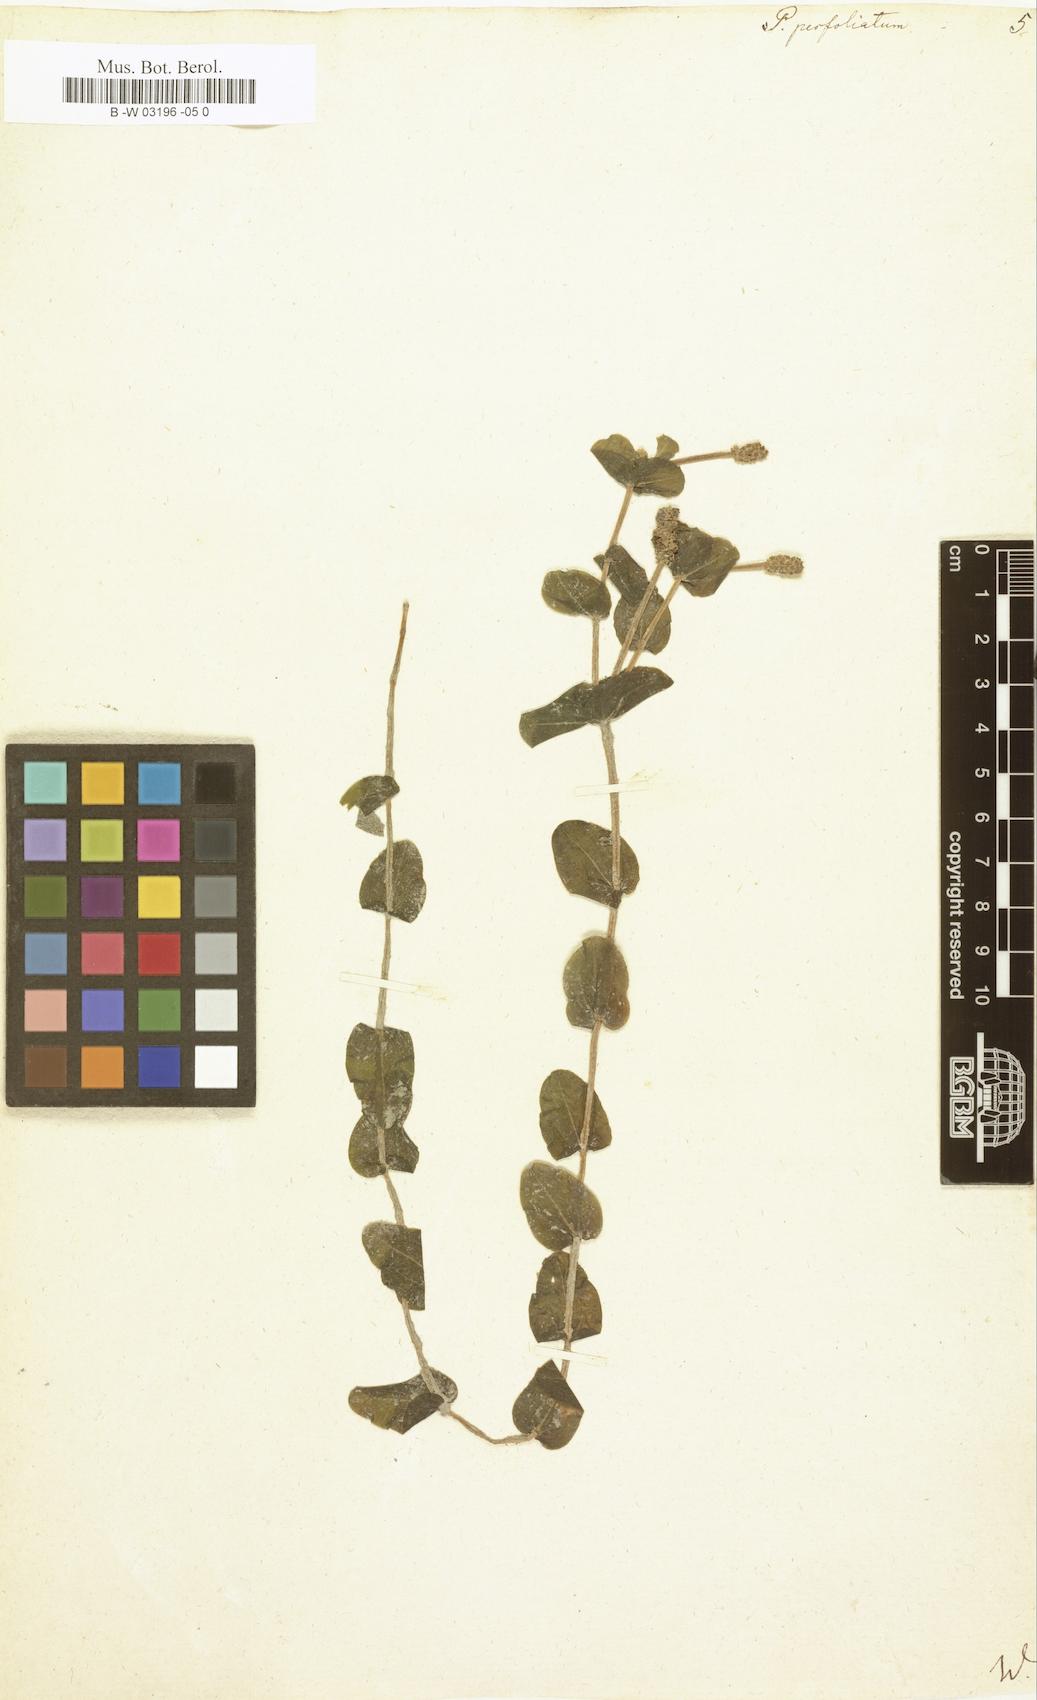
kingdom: Plantae
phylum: Tracheophyta
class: Liliopsida
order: Alismatales
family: Potamogetonaceae
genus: Potamogeton
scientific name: Potamogeton perfoliatus
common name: Perfoliate pondweed
